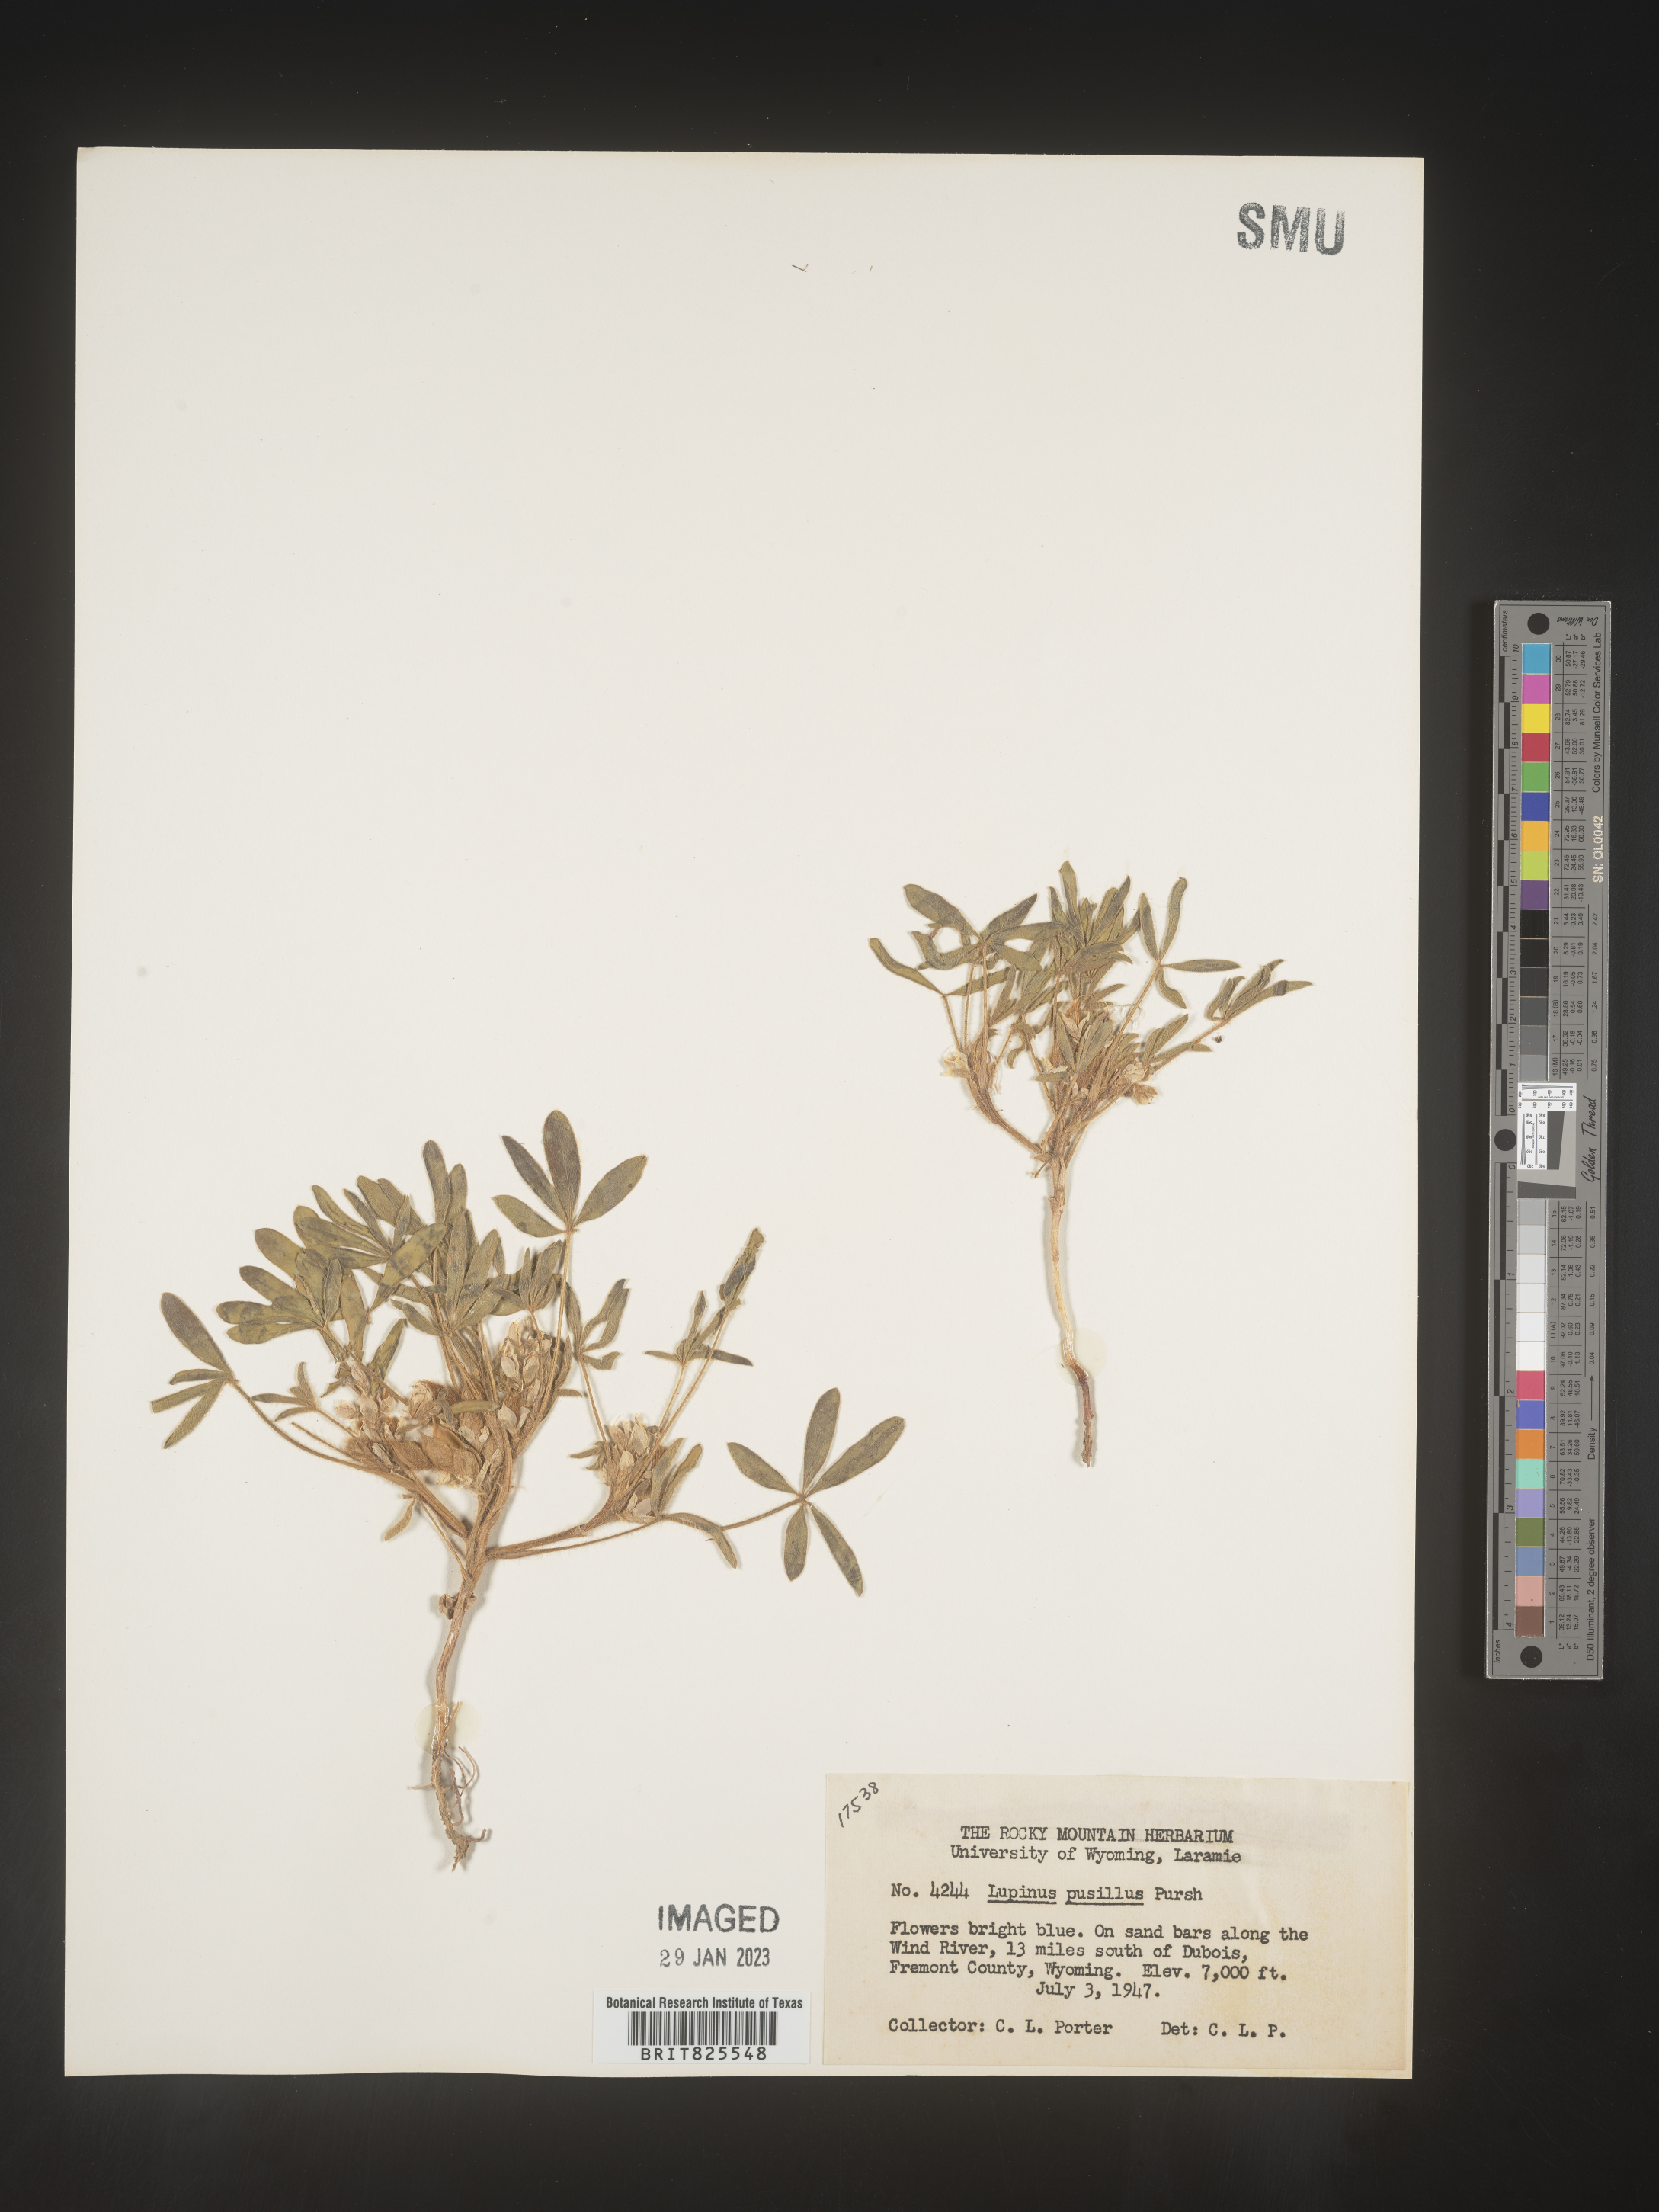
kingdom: Plantae
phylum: Tracheophyta
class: Magnoliopsida
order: Fabales
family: Fabaceae
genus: Lupinus
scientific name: Lupinus
